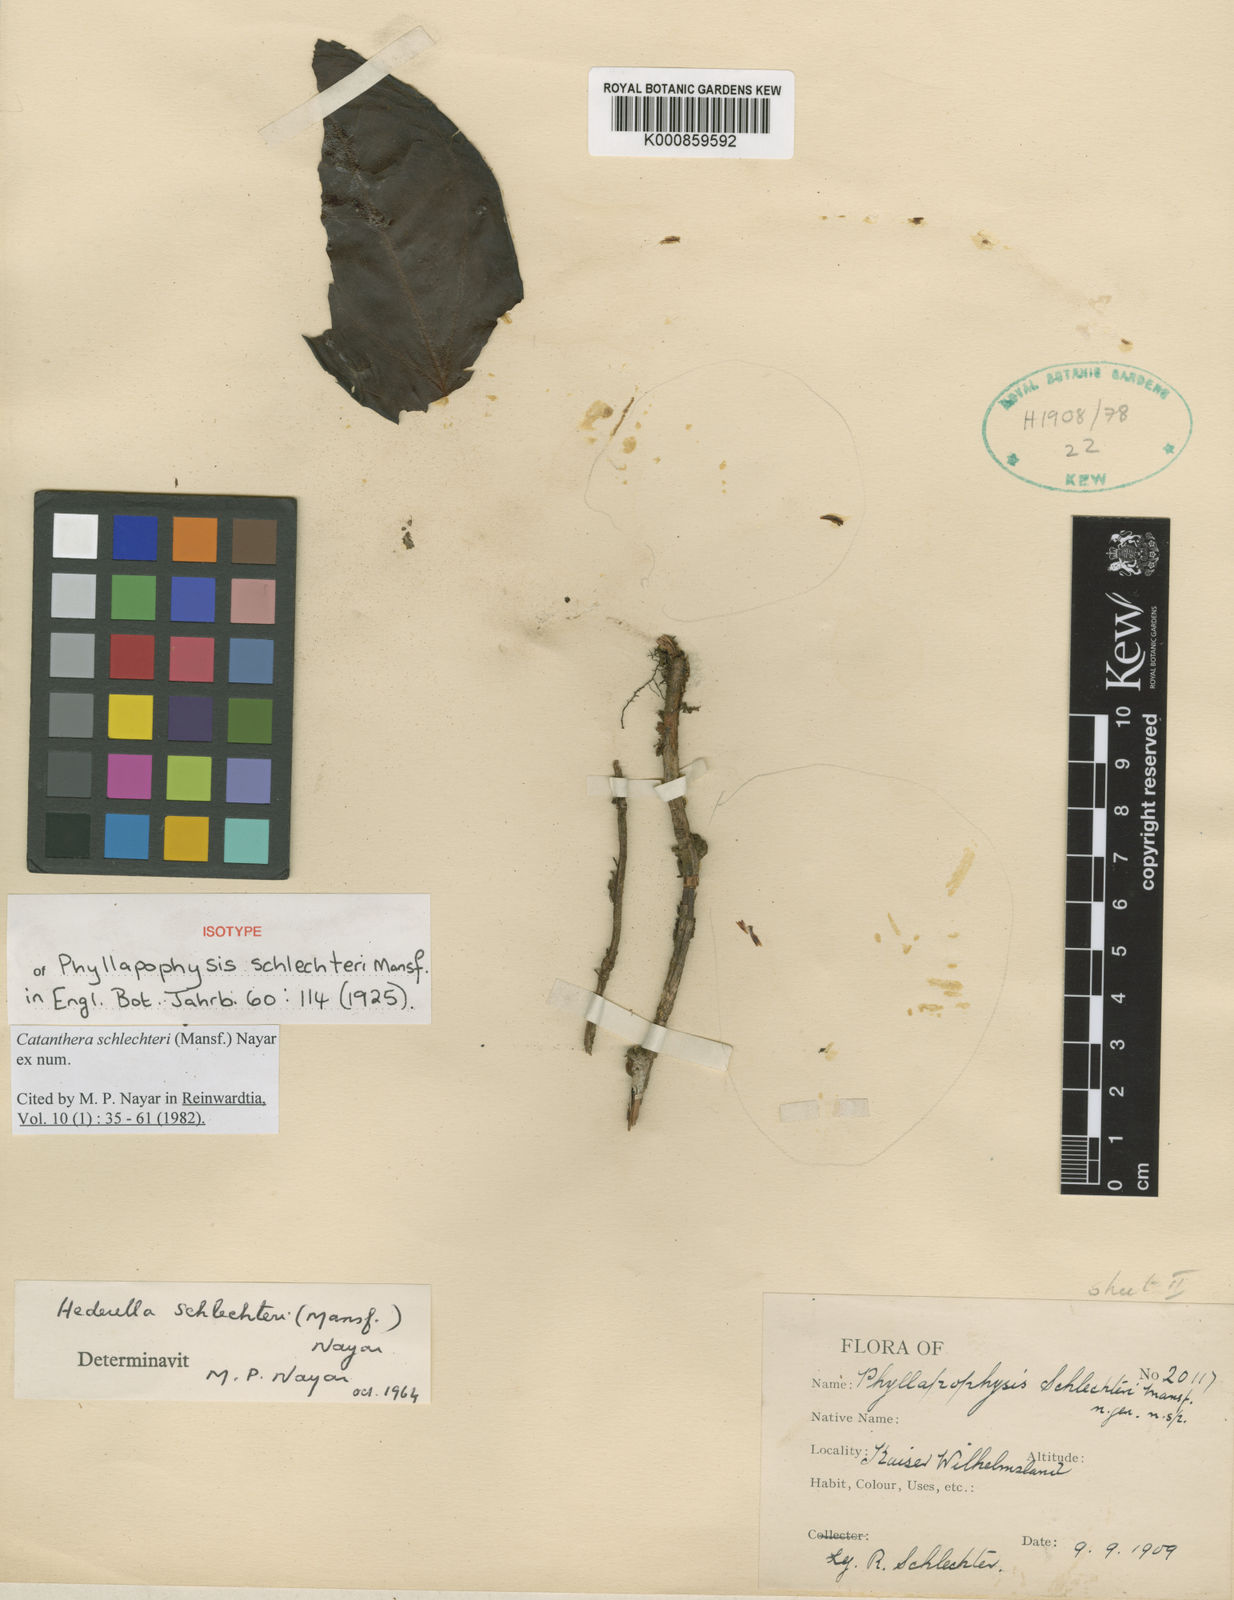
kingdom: Plantae
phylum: Tracheophyta
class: Magnoliopsida
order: Myrtales
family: Melastomataceae
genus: Catanthera
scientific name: Catanthera schlechteri
